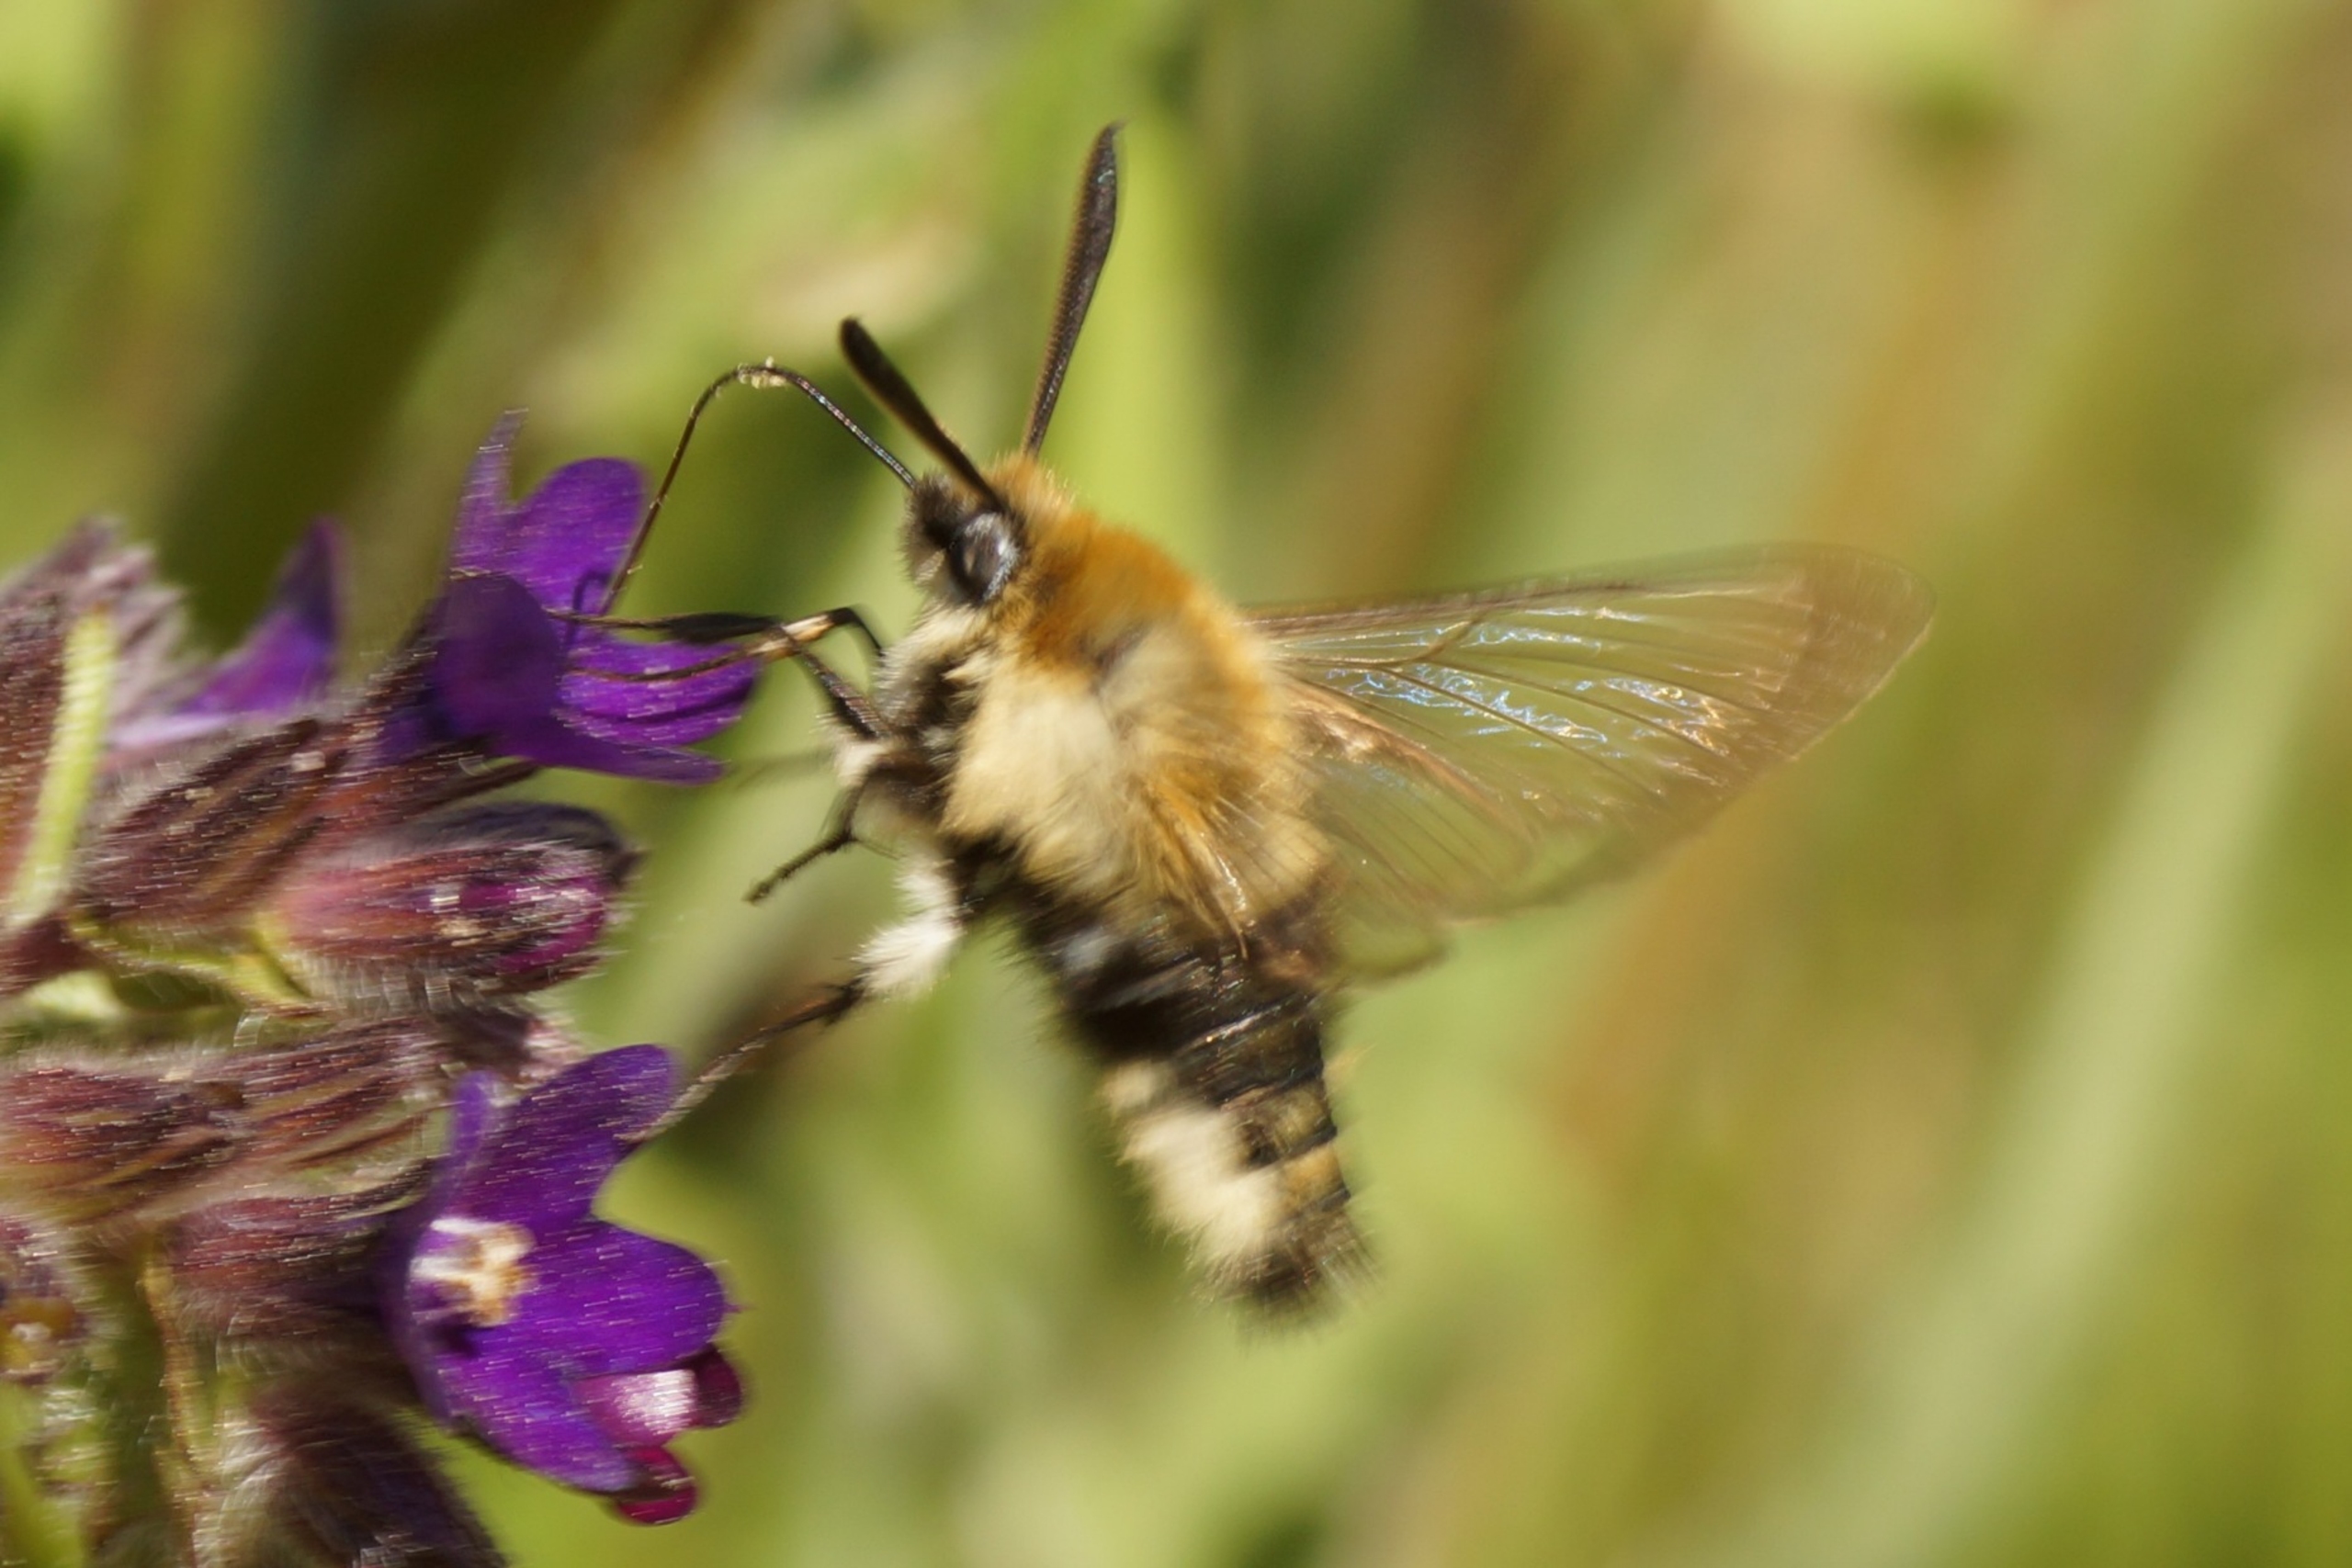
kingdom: Animalia
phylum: Arthropoda
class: Insecta
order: Lepidoptera
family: Sphingidae
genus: Hemaris
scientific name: Hemaris tityus
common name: Smalrandet humlebisværmer
